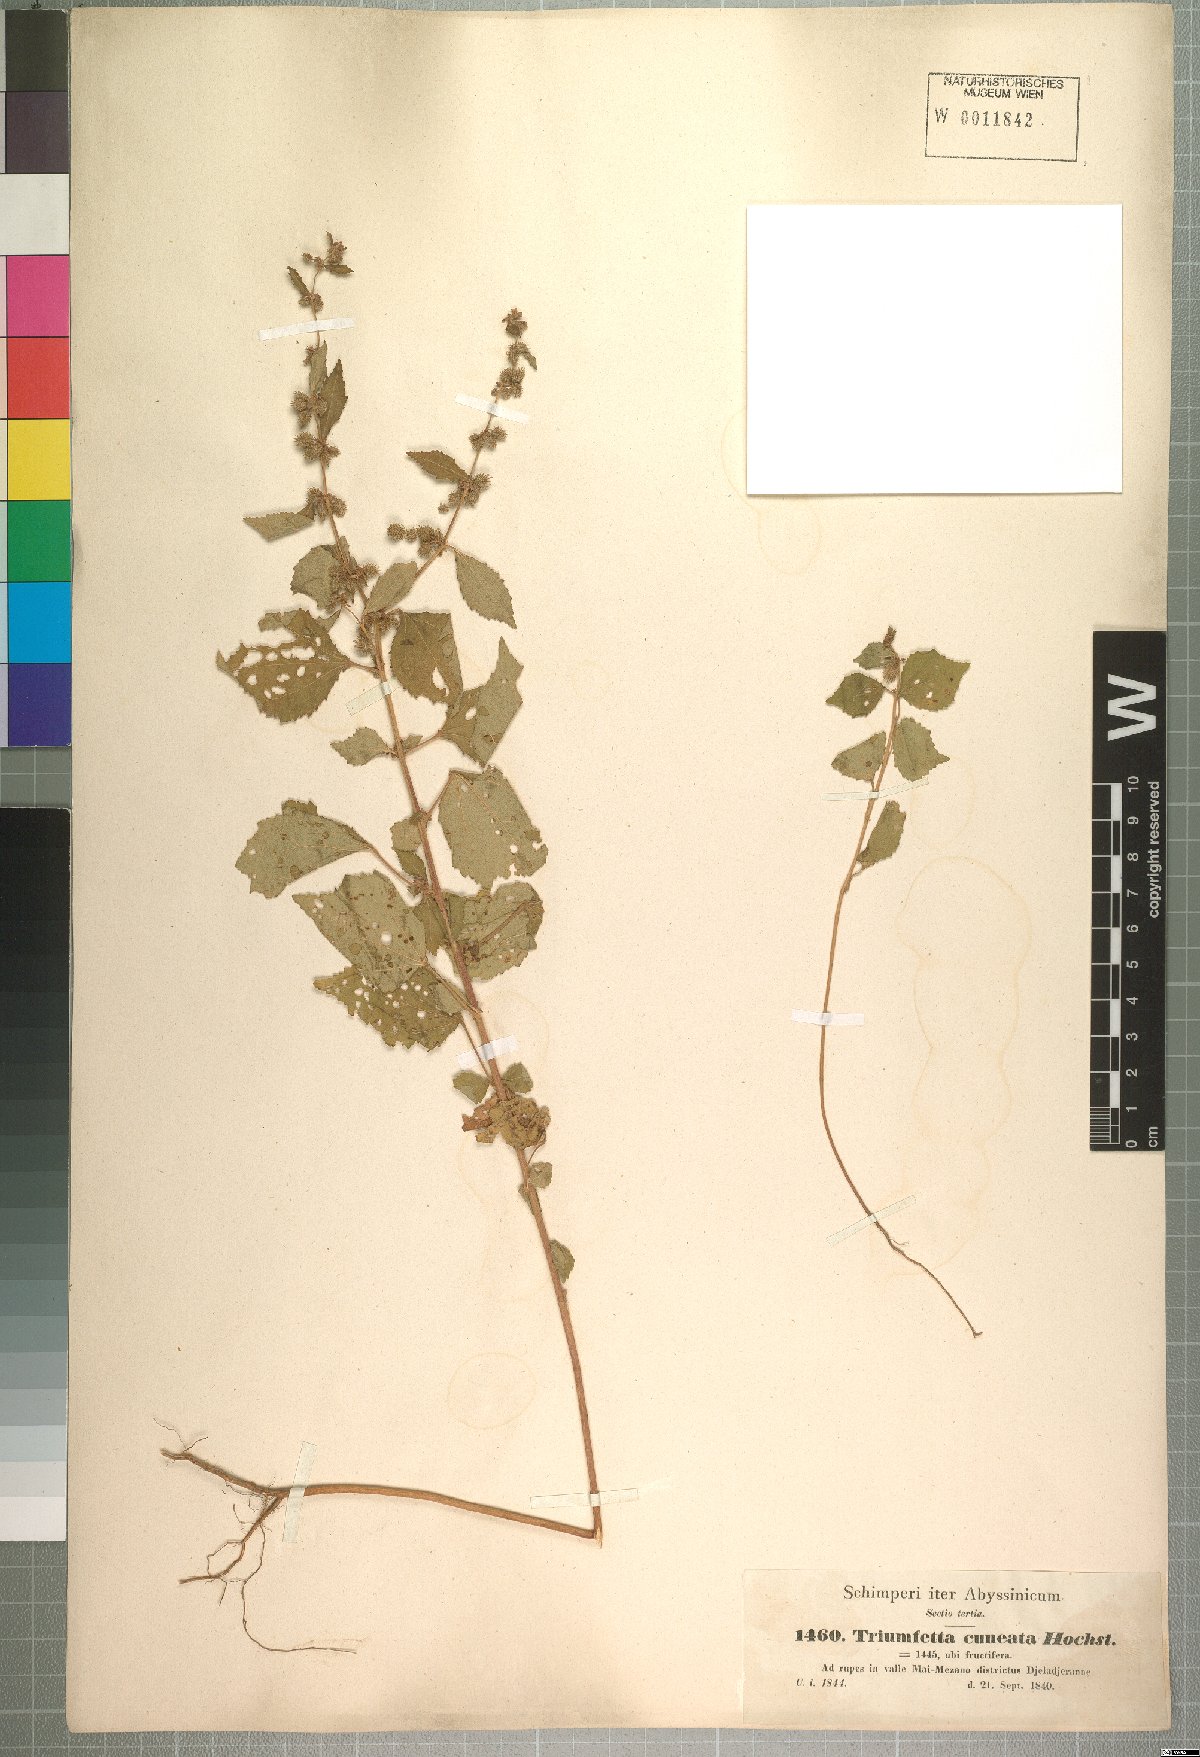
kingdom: Plantae
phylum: Tracheophyta
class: Magnoliopsida
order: Malvales
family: Malvaceae
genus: Triumfetta
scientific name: Triumfetta pentandra
